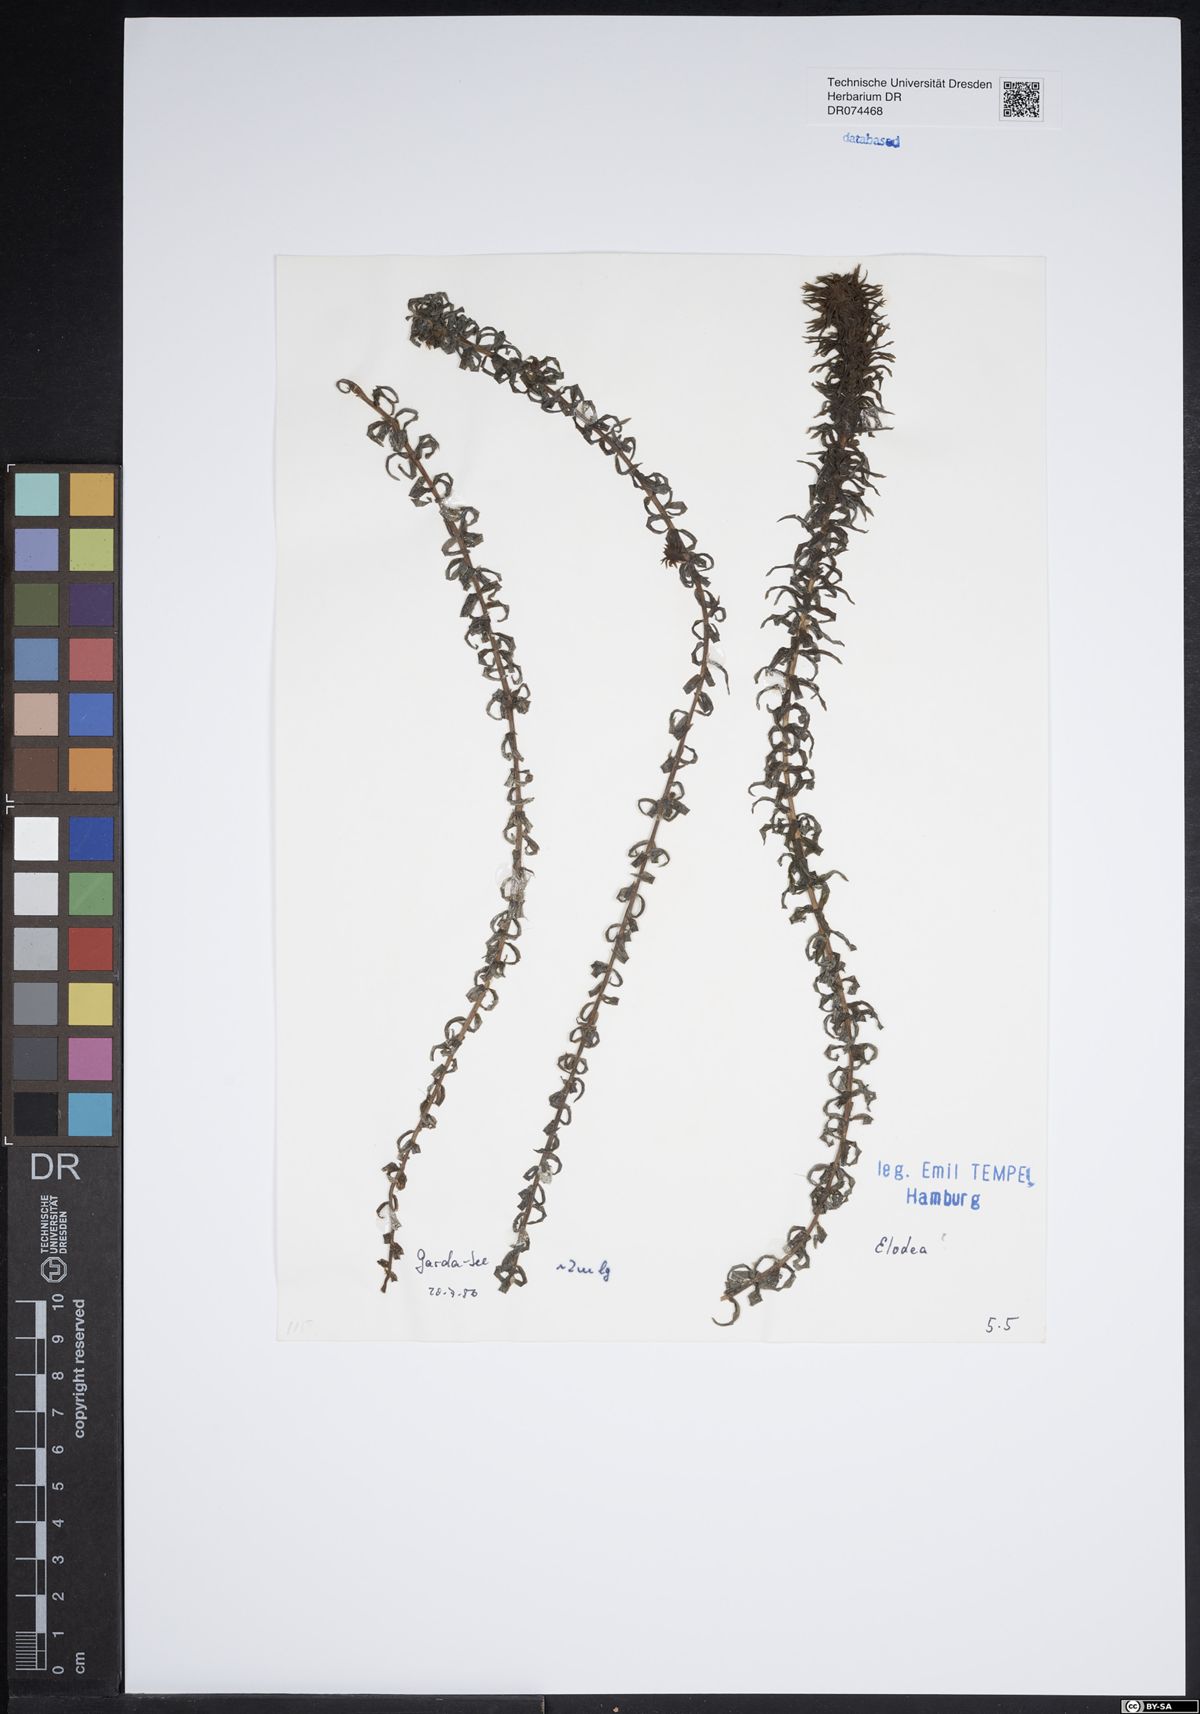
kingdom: Plantae
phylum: Tracheophyta
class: Liliopsida
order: Alismatales
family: Hydrocharitaceae
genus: Elodea
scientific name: Elodea
